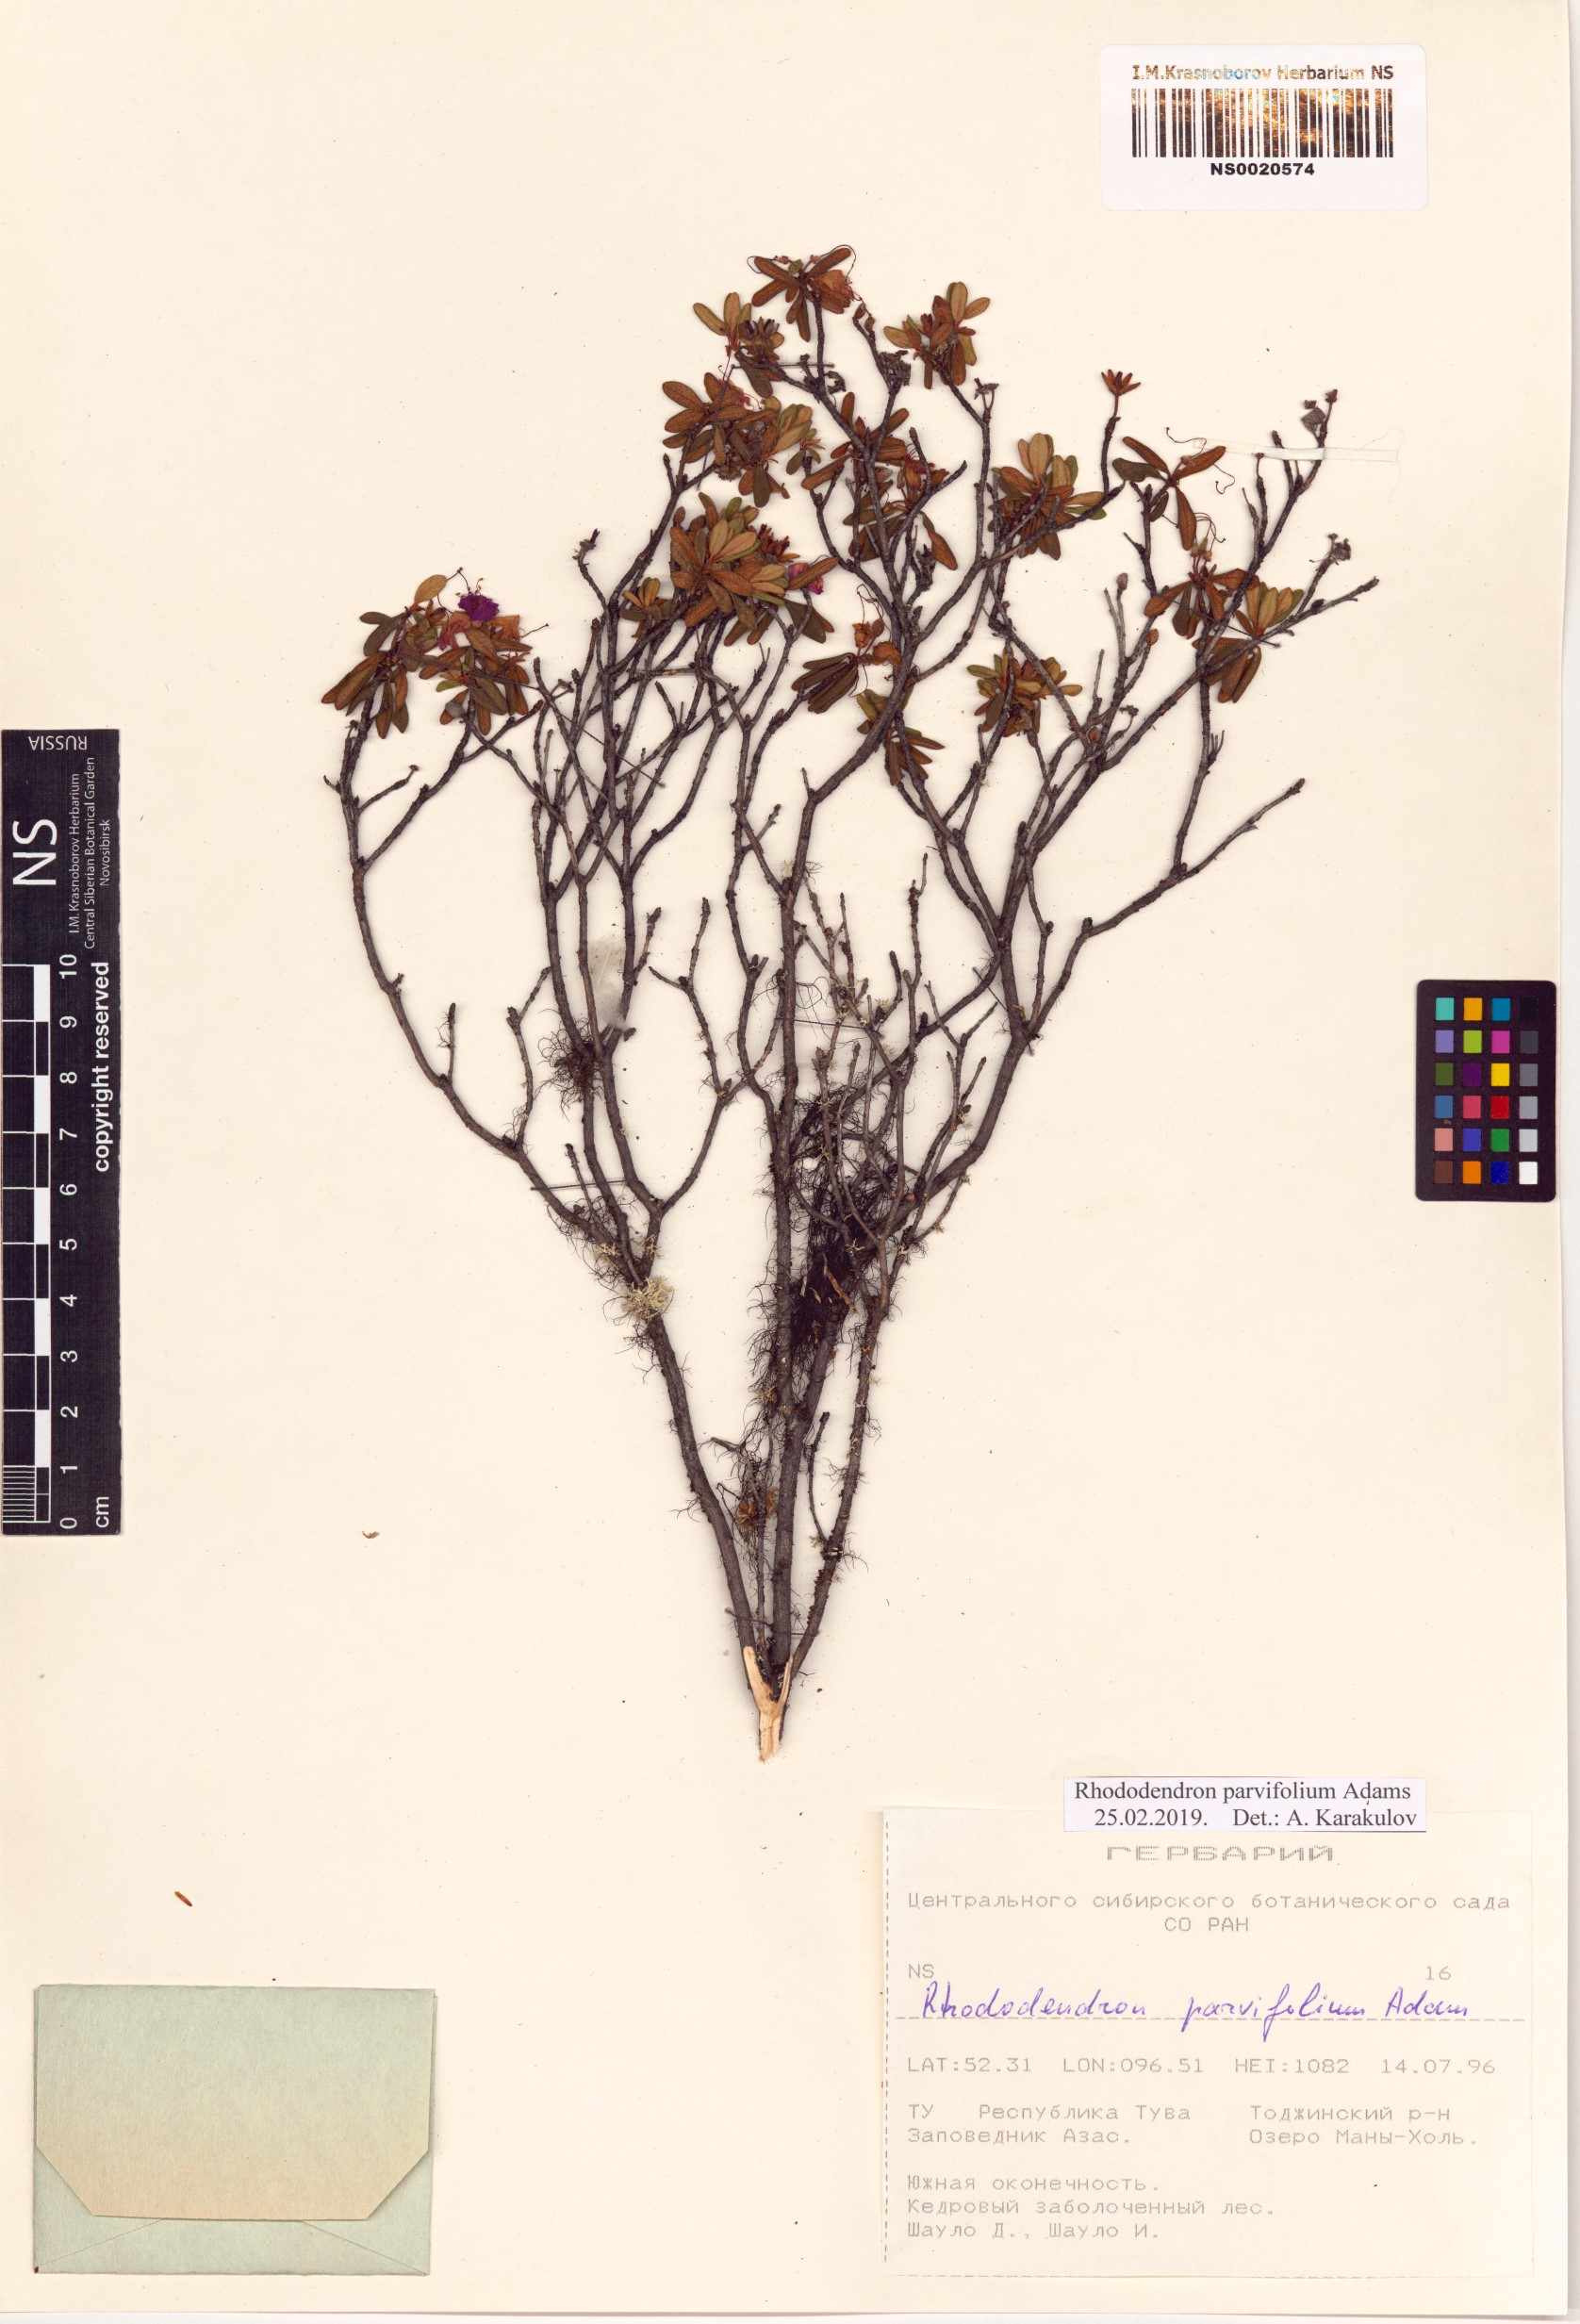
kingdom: Plantae
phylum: Tracheophyta
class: Magnoliopsida
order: Ericales
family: Ericaceae
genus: Rhododendron
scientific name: Rhododendron parvifolium
